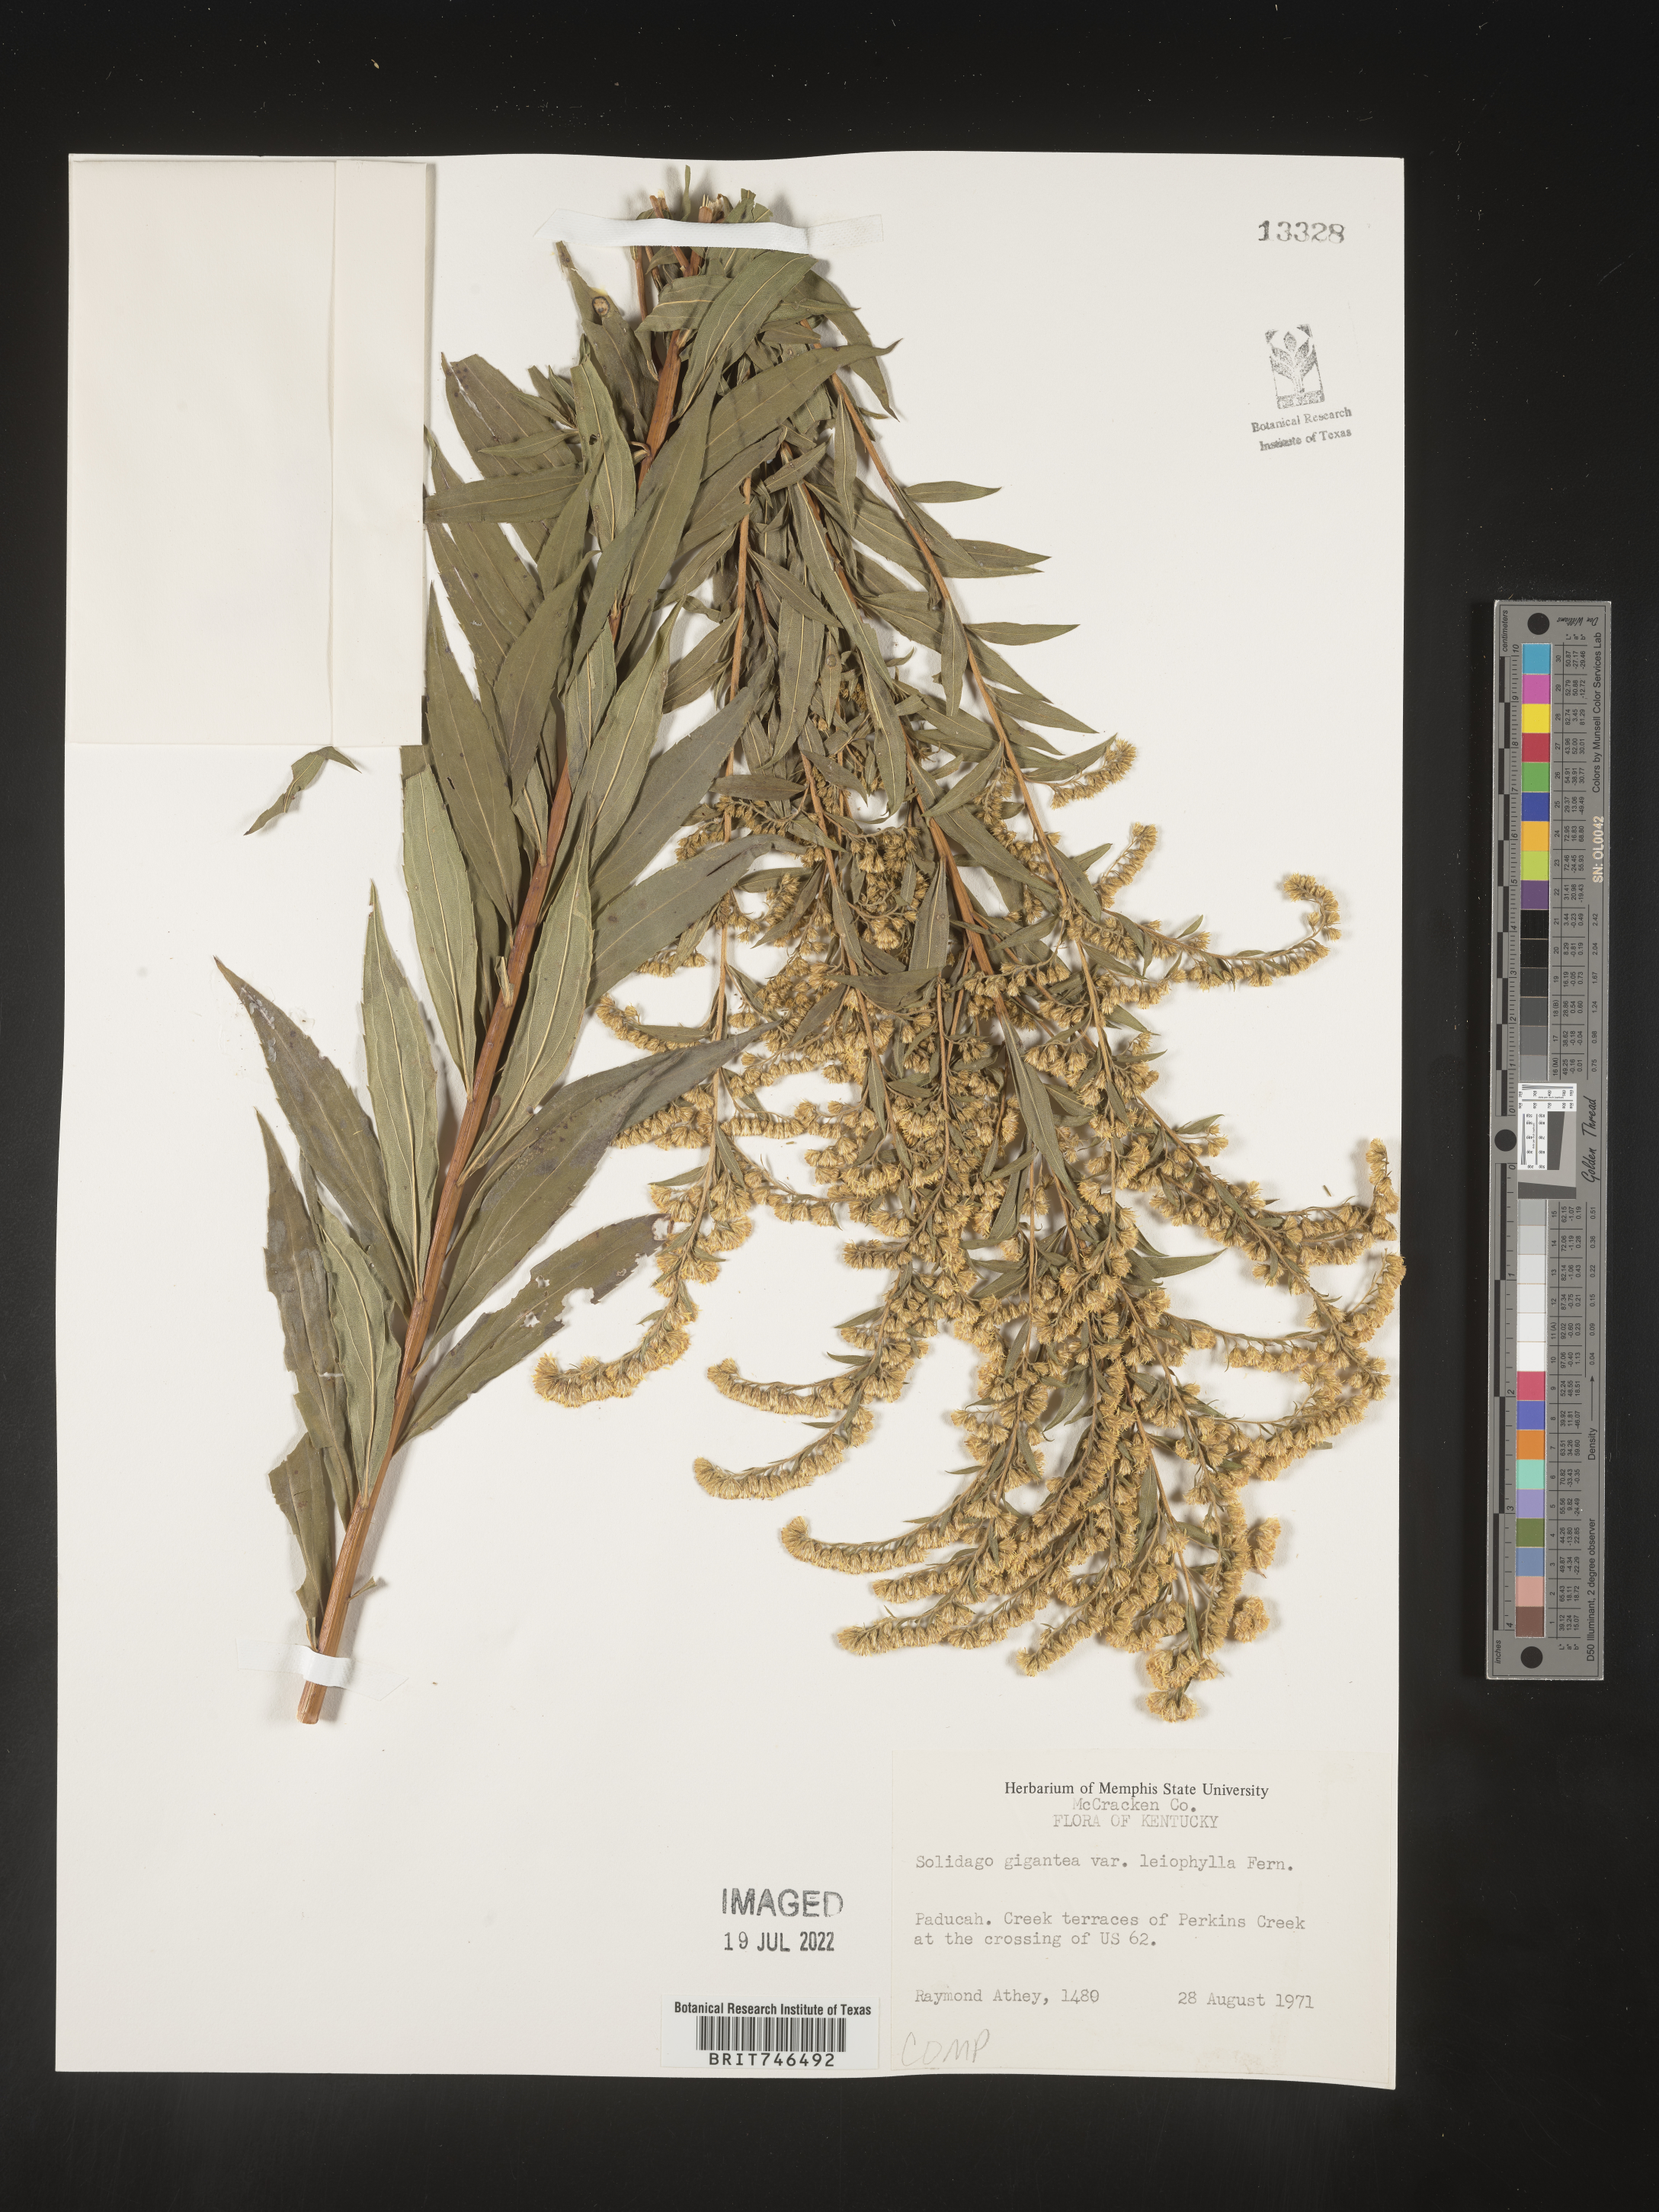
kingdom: Plantae
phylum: Tracheophyta
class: Magnoliopsida
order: Asterales
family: Asteraceae
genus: Solidago
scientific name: Solidago gigantea
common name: Giant goldenrod
